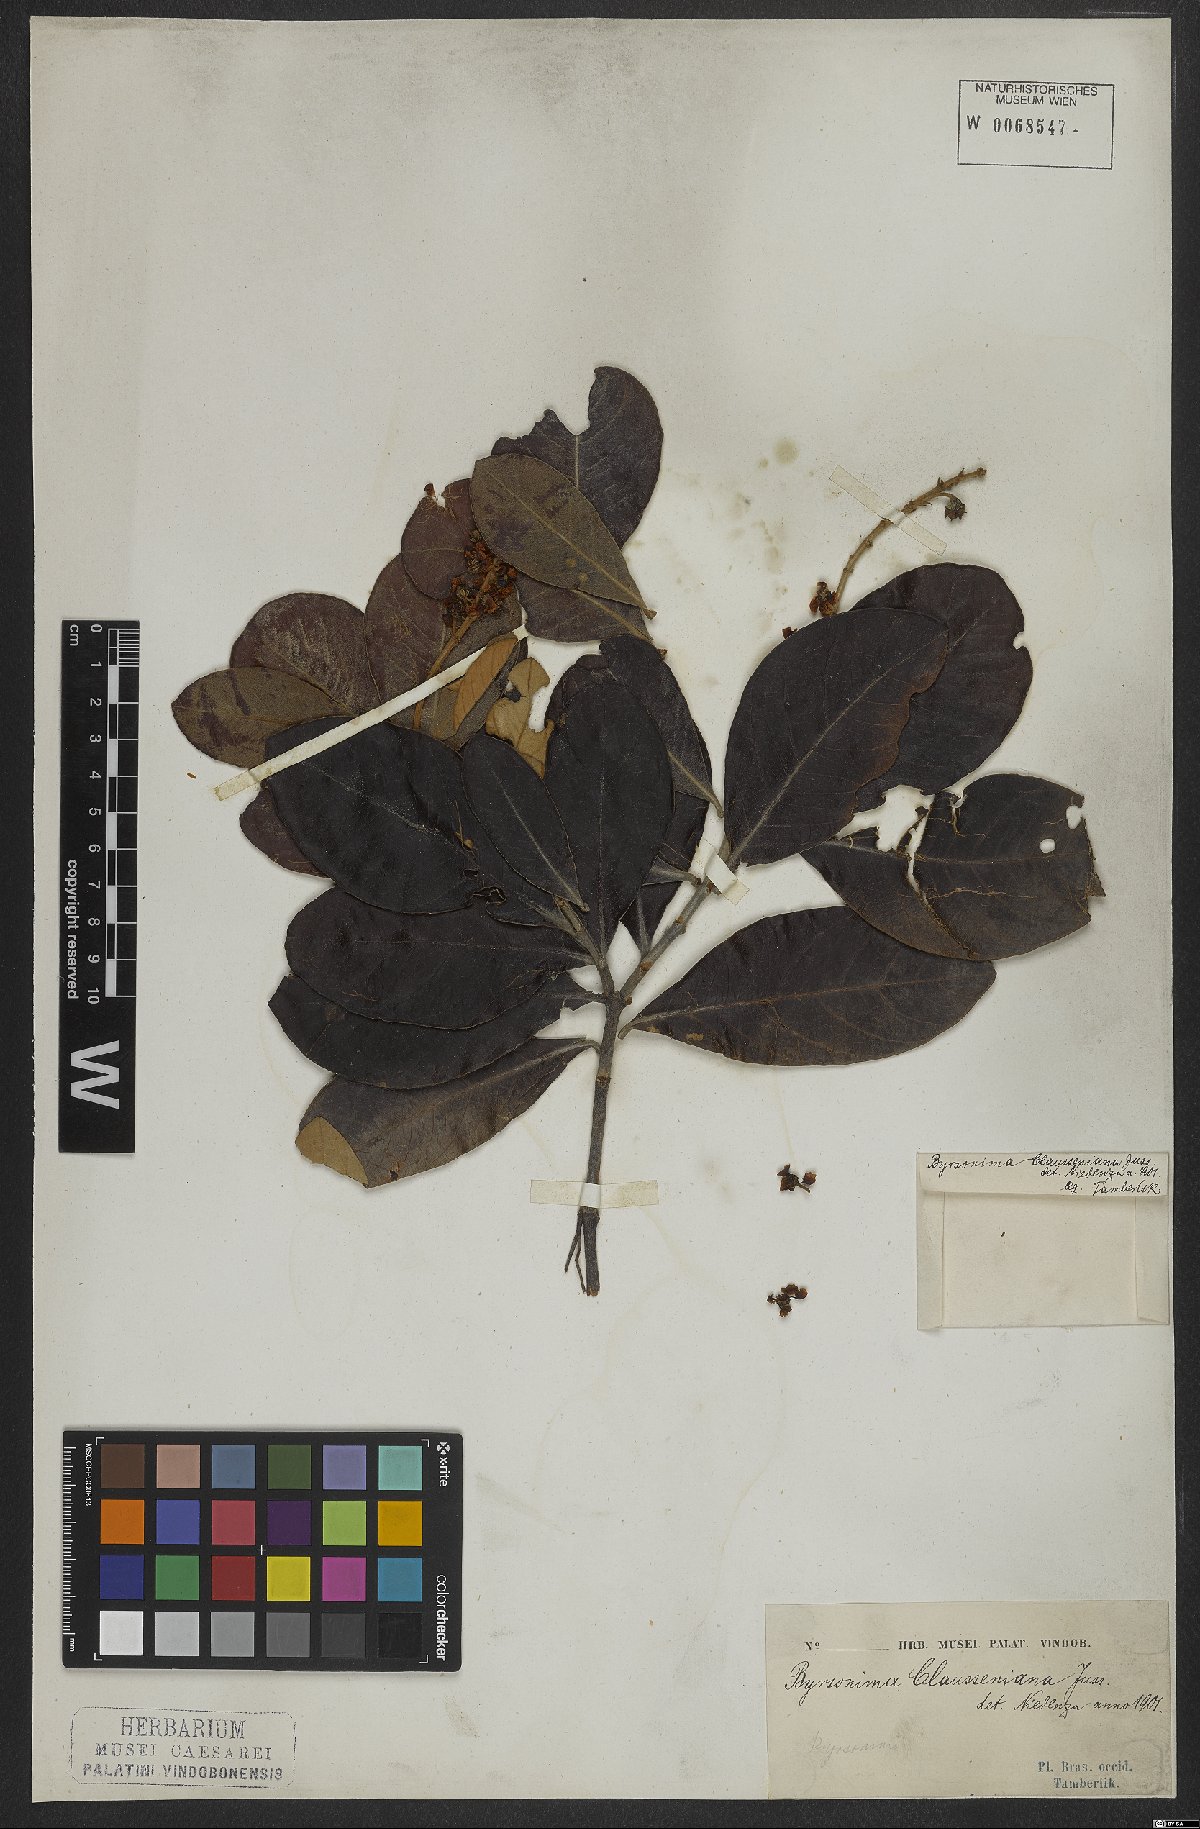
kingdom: Plantae
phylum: Tracheophyta
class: Magnoliopsida
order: Malpighiales
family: Malpighiaceae
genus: Byrsonima
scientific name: Byrsonima clausseniana
